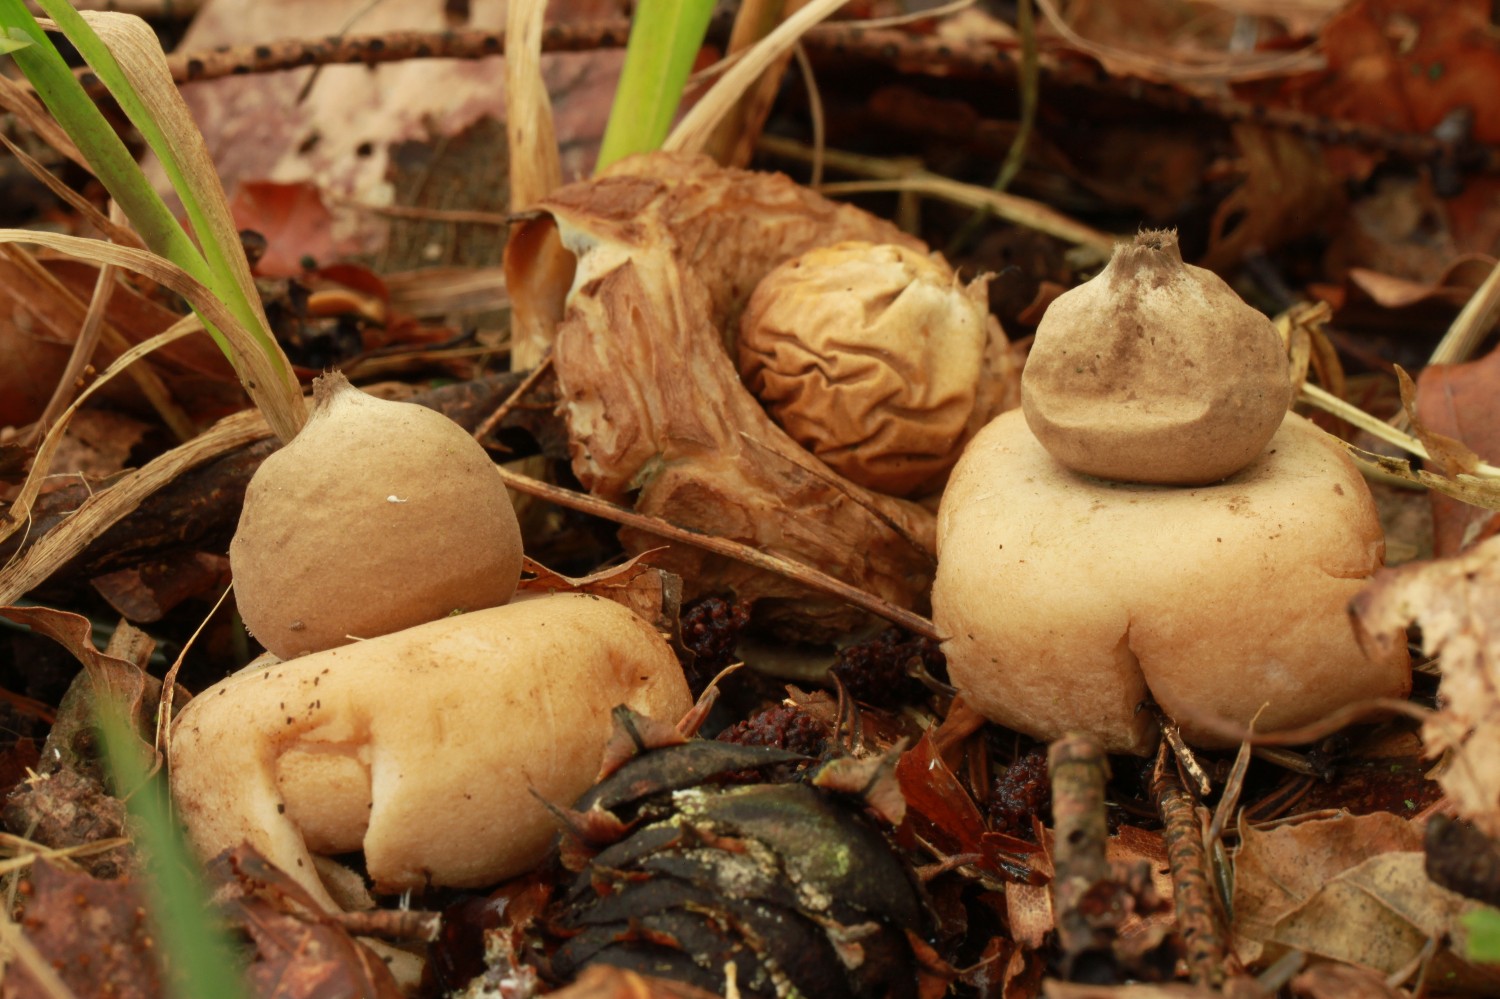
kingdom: Fungi
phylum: Basidiomycota
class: Agaricomycetes
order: Geastrales
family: Geastraceae
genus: Geastrum
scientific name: Geastrum fimbriatum
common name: frynset stjernebold
